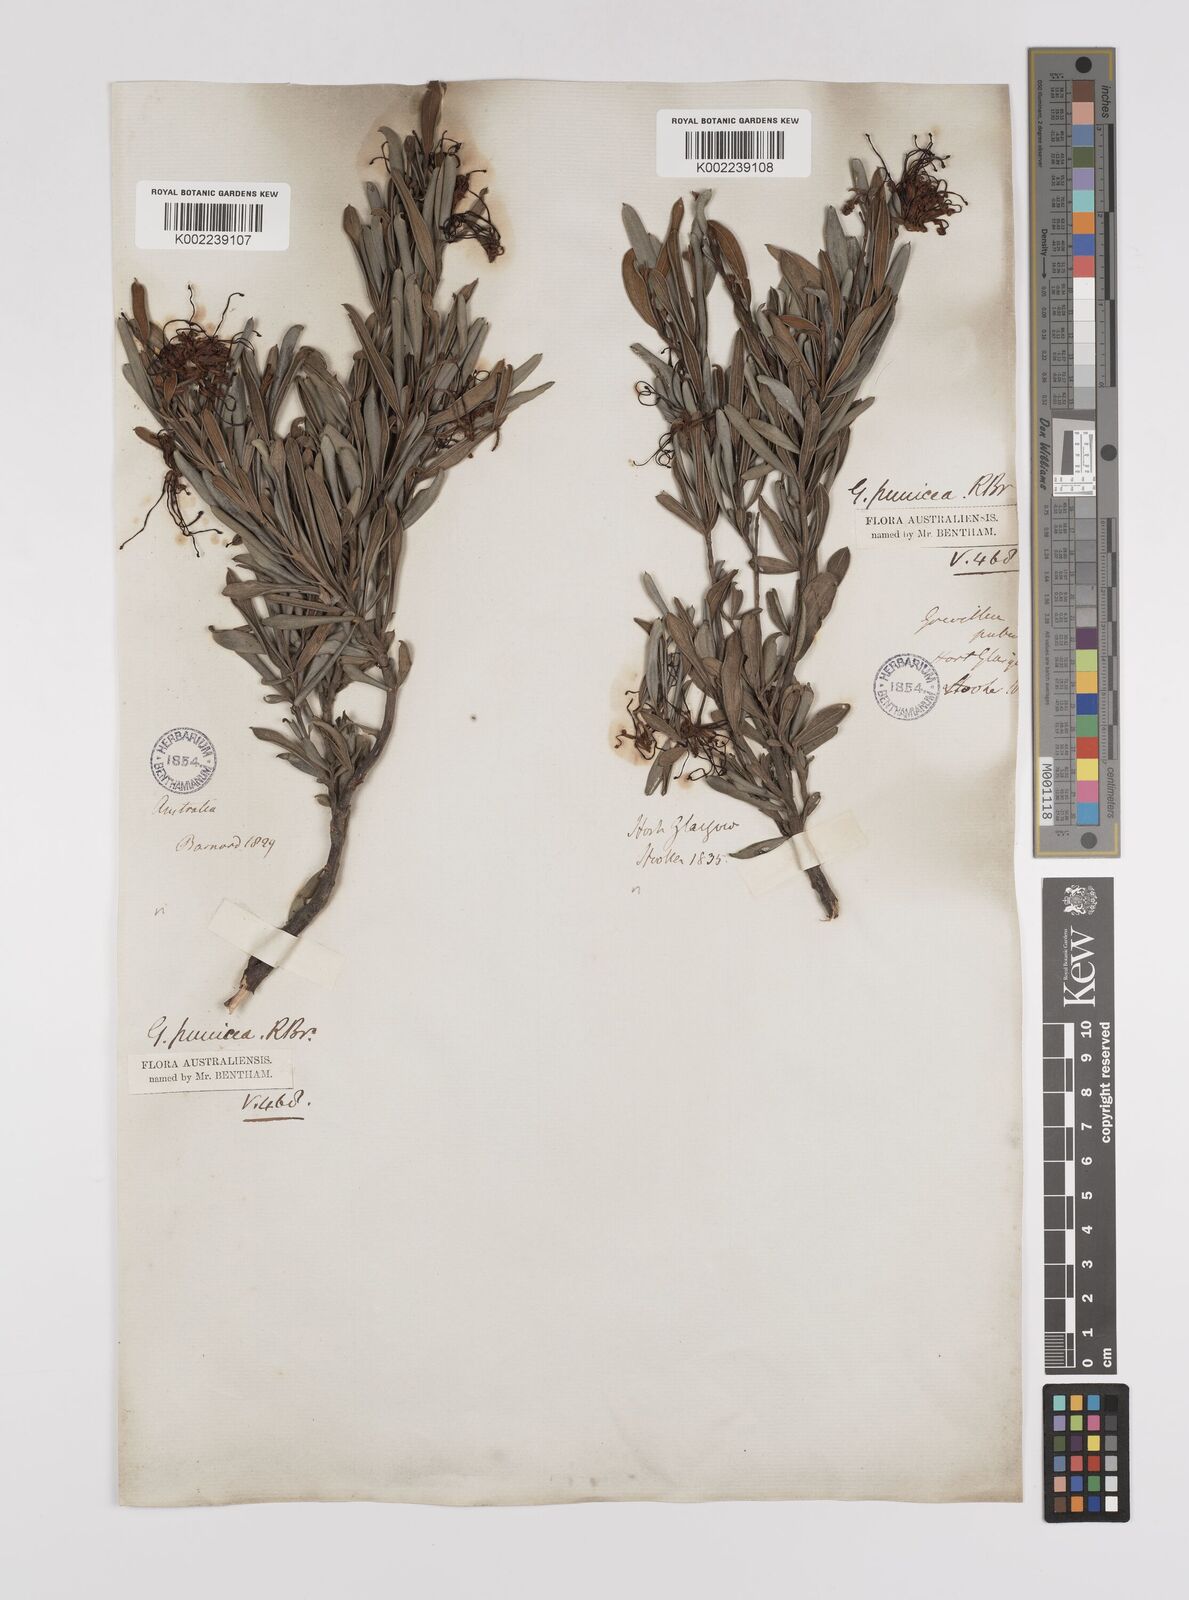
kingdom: Plantae
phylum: Tracheophyta
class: Magnoliopsida
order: Proteales
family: Proteaceae
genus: Grevillea
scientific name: Grevillea speciosa
